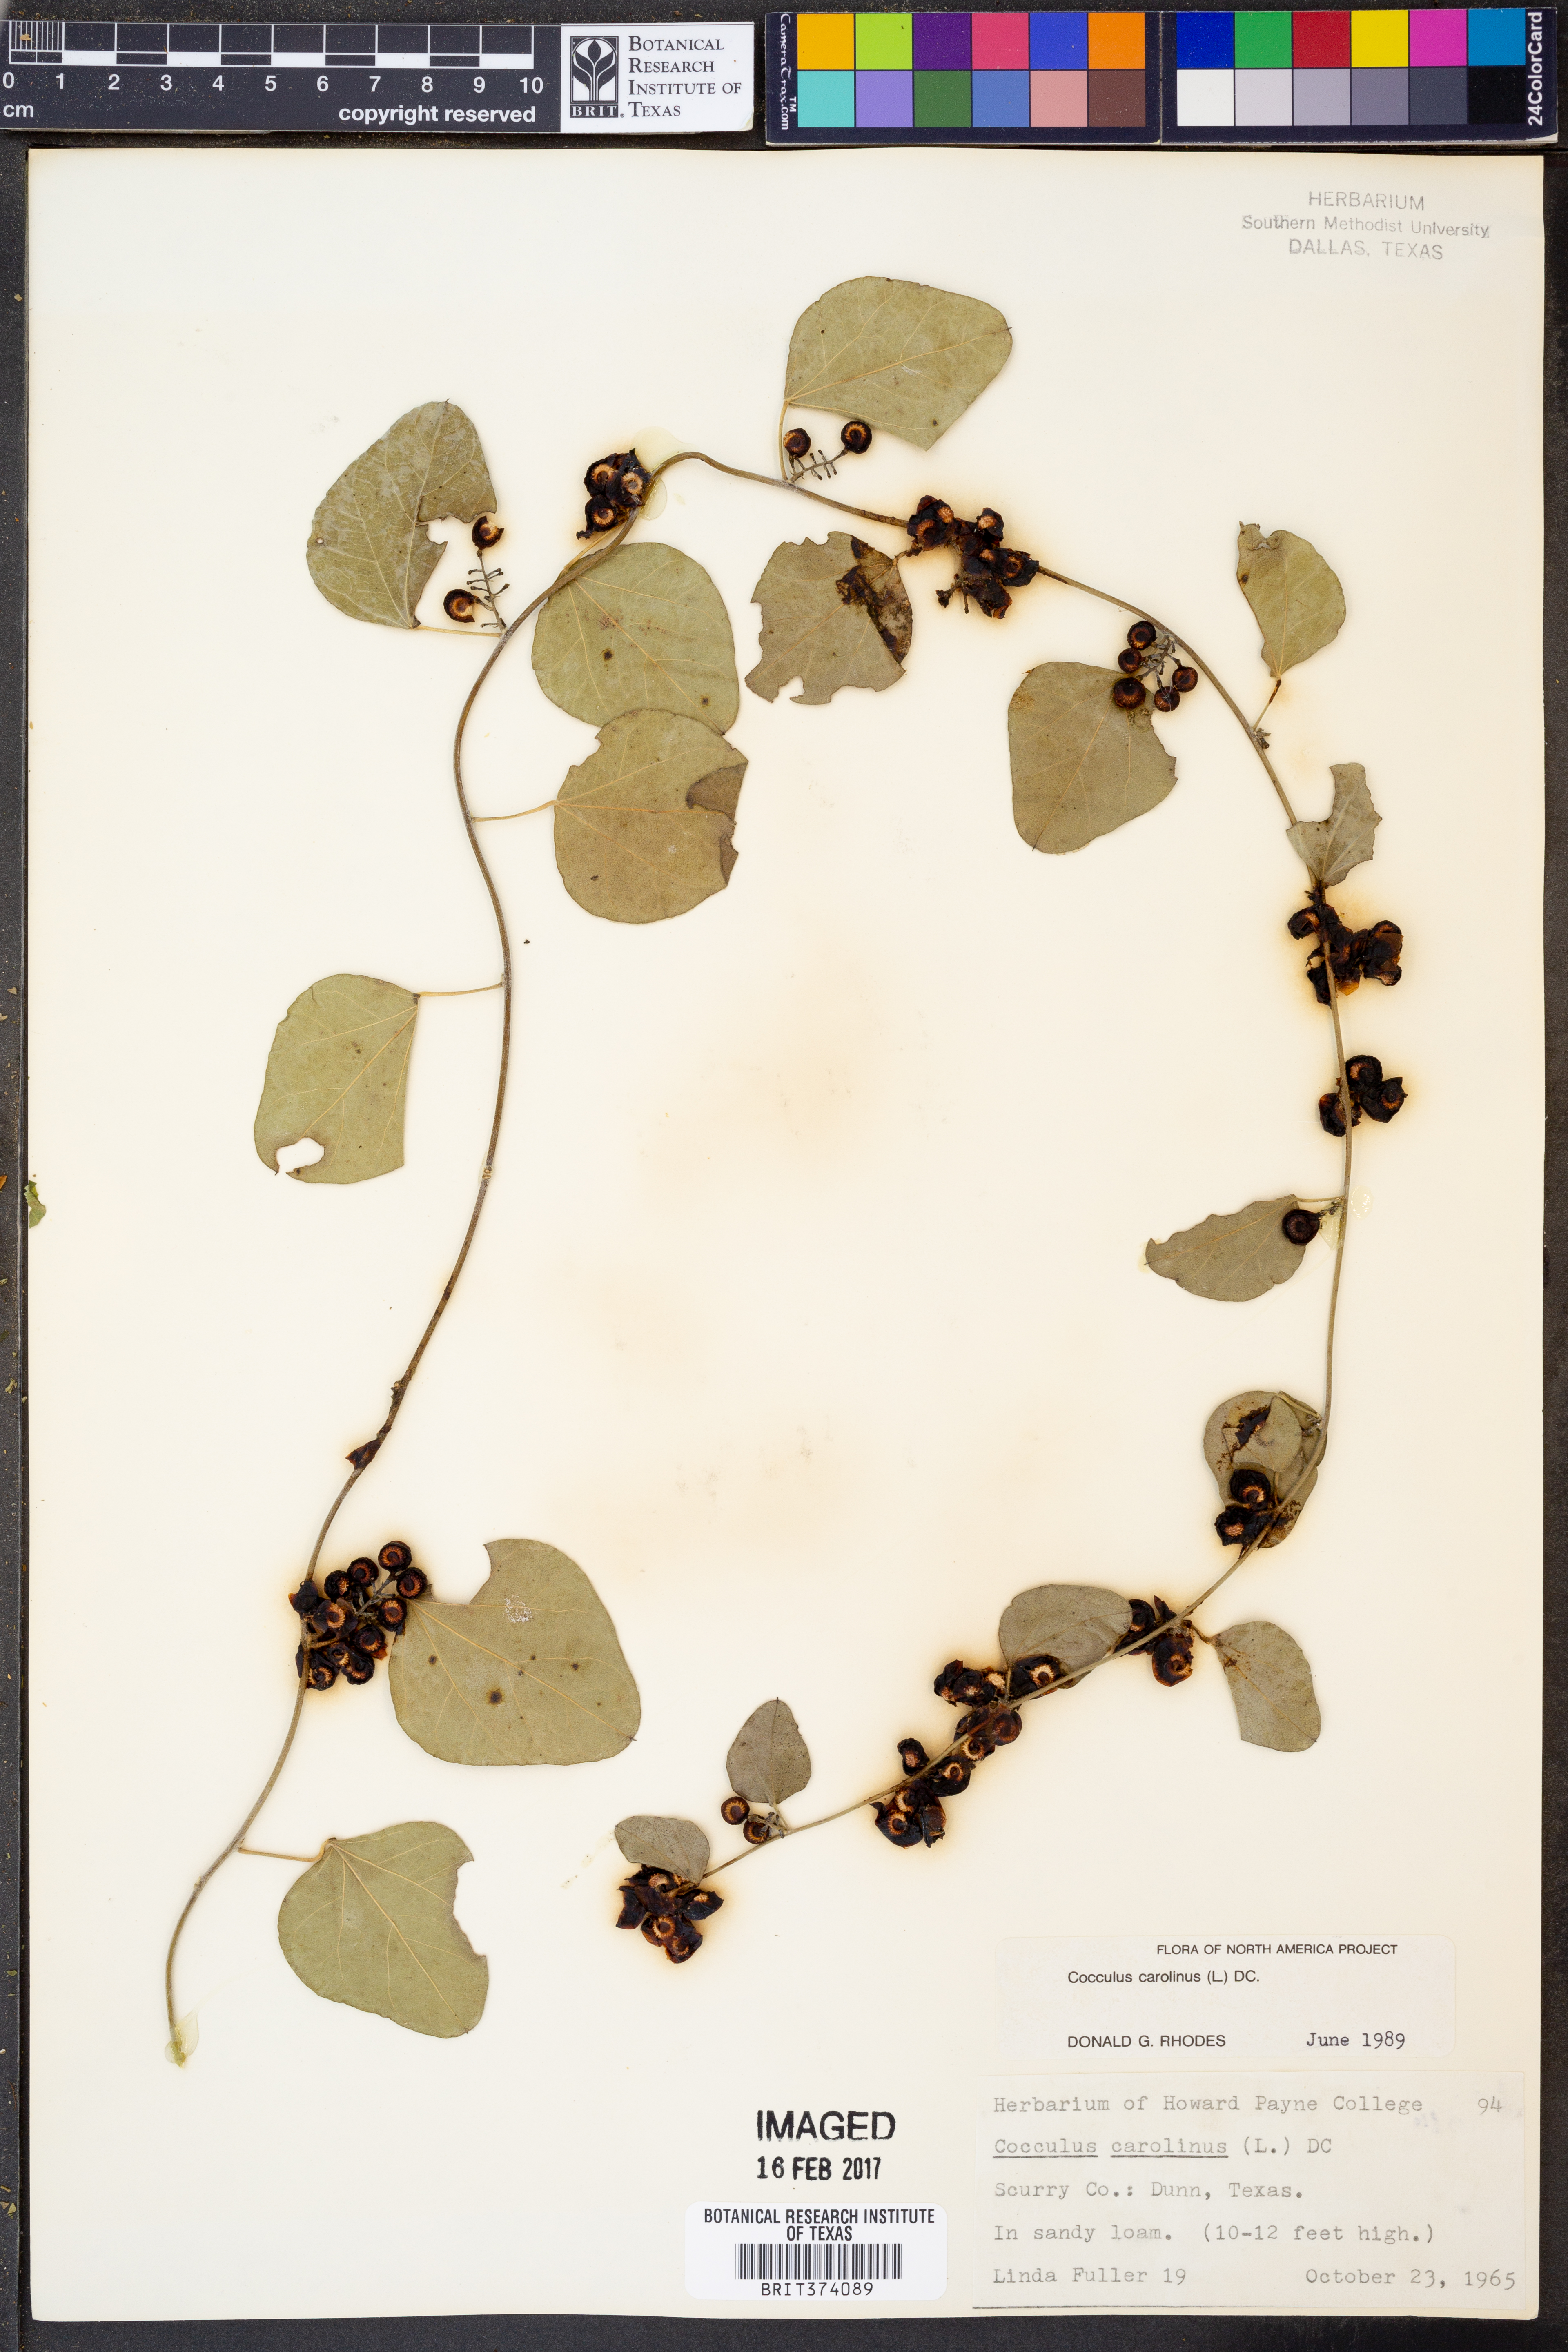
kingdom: Plantae
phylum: Tracheophyta
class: Magnoliopsida
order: Ranunculales
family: Menispermaceae
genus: Cocculus
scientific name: Cocculus carolinus
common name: Carolina moonseed
